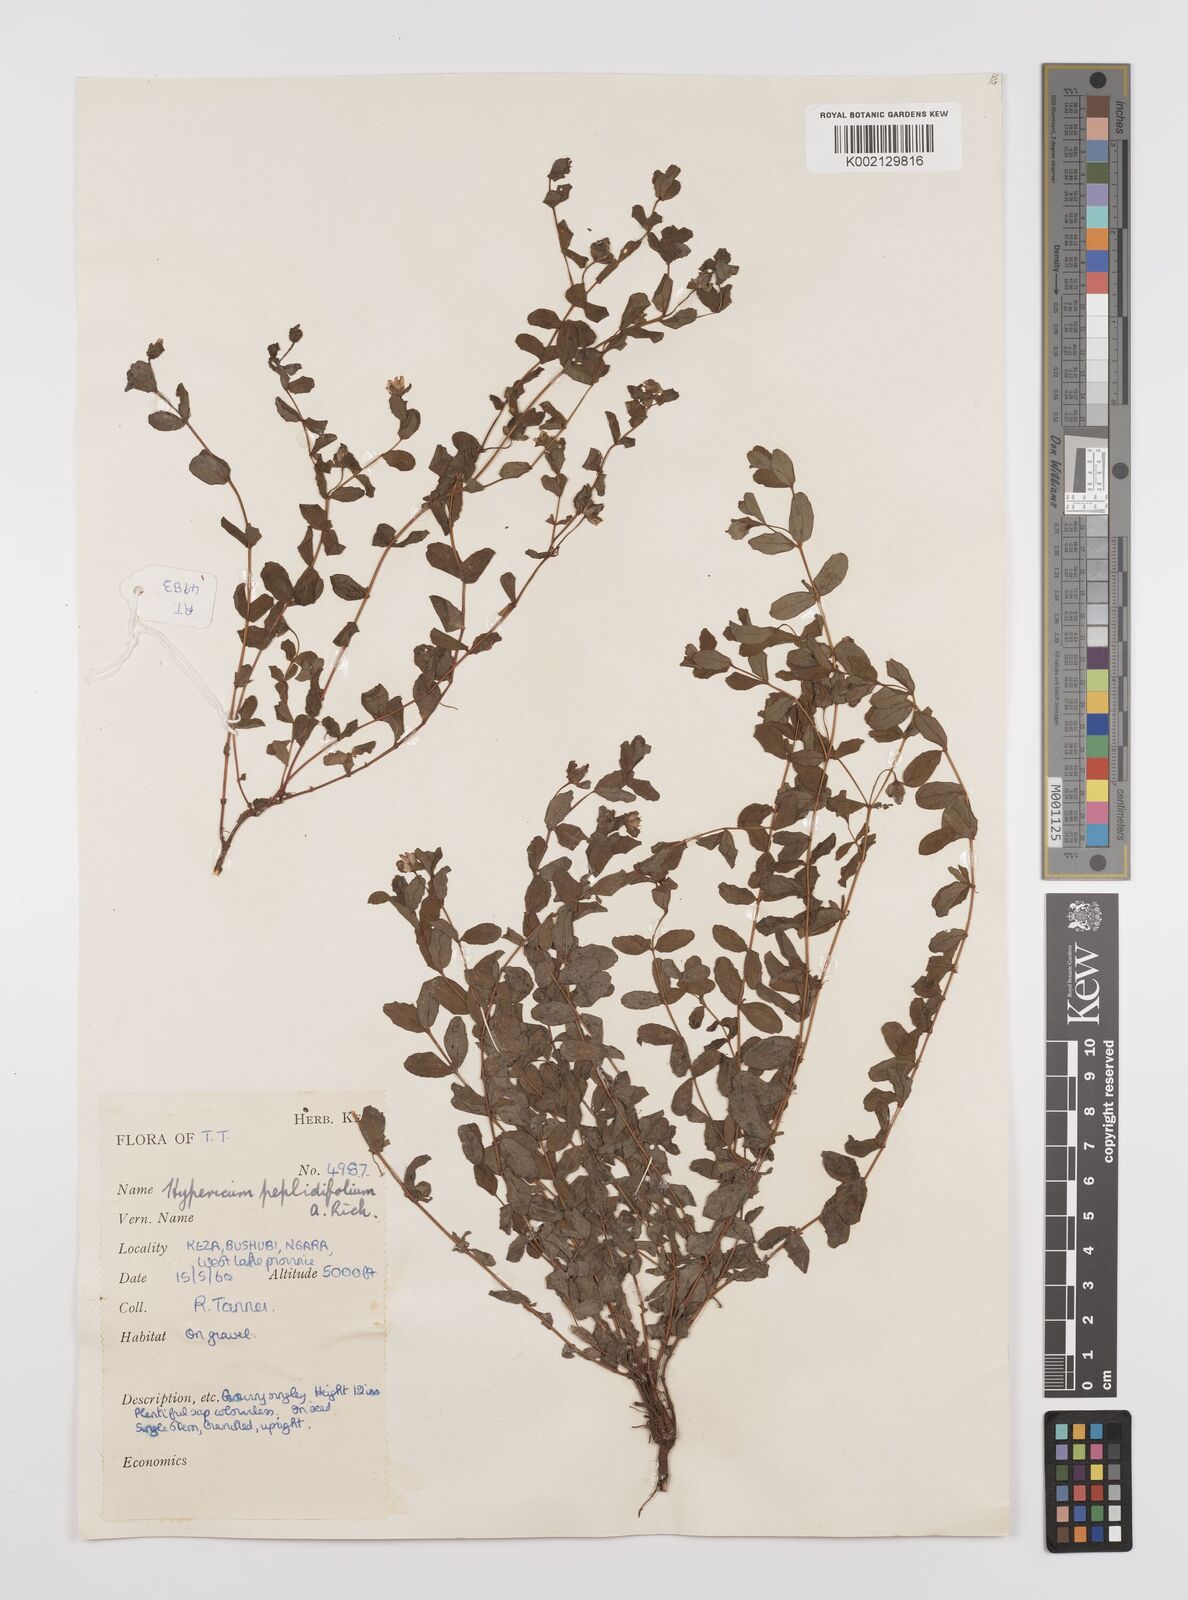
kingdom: Plantae
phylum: Tracheophyta
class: Magnoliopsida
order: Malpighiales
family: Hypericaceae
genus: Hypericum
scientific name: Hypericum peplidifolium
